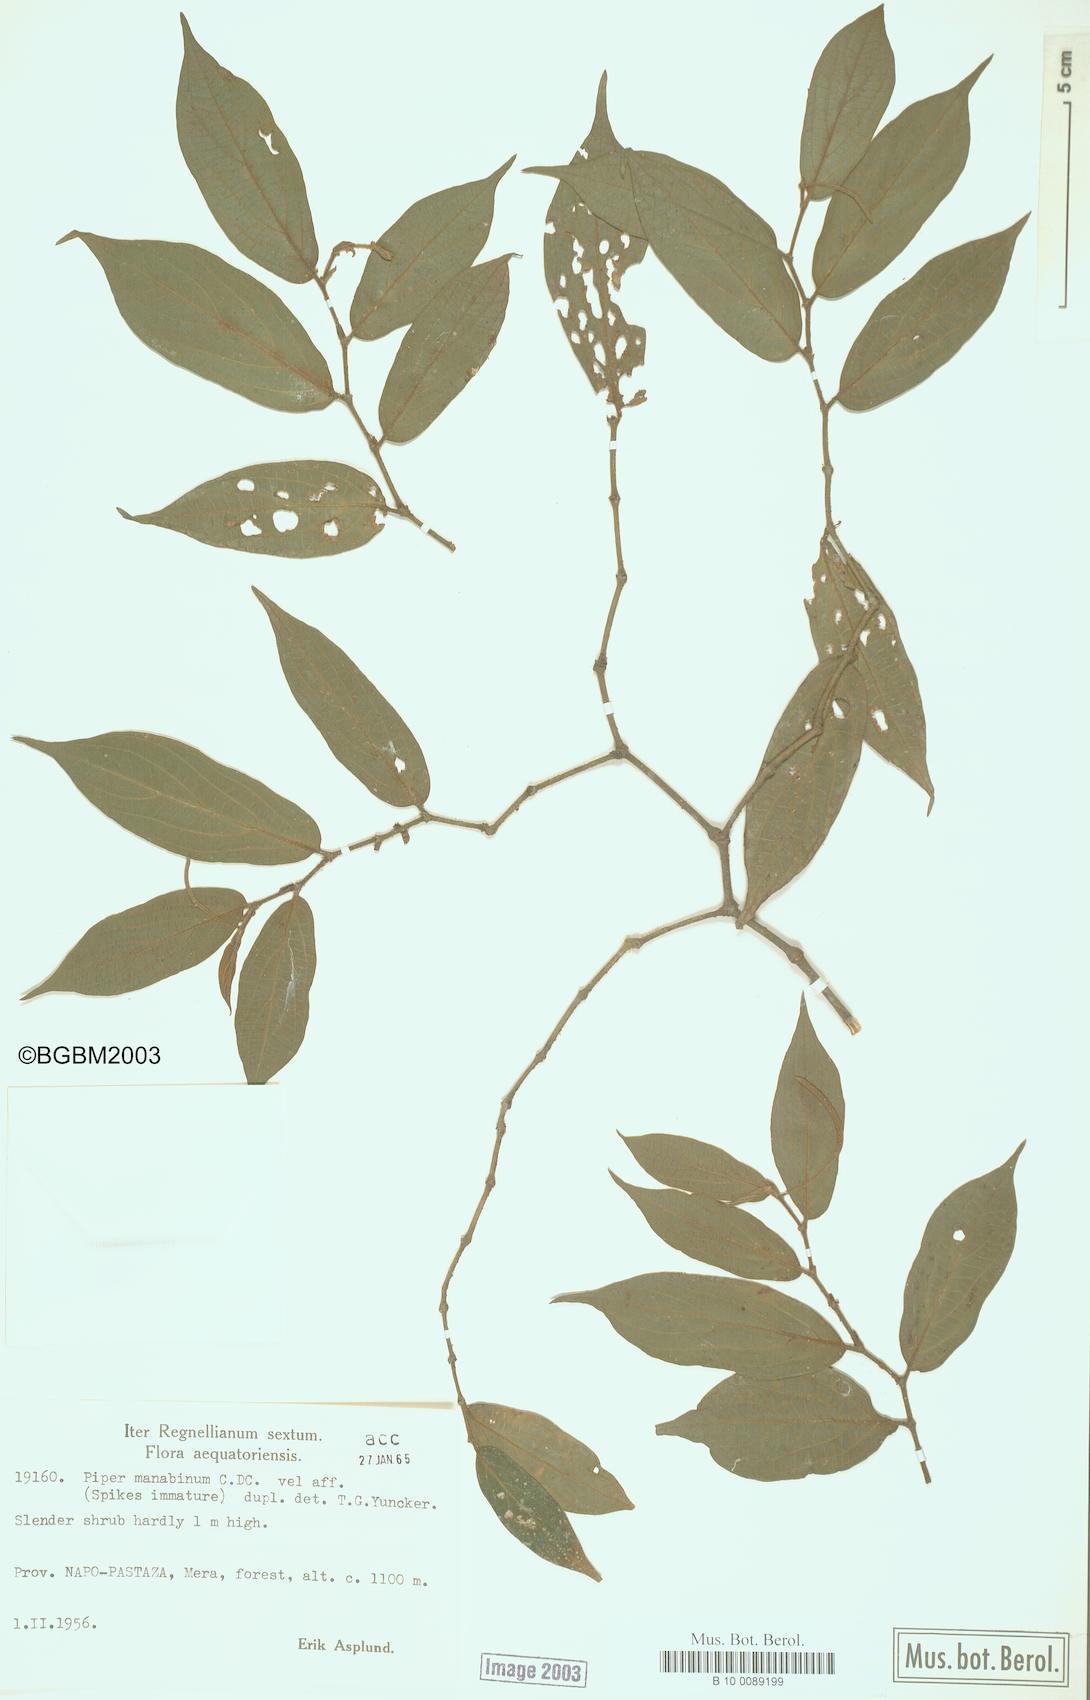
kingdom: Plantae
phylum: Tracheophyta
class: Magnoliopsida
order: Piperales
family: Piperaceae
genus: Piper
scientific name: Piper manabinum
